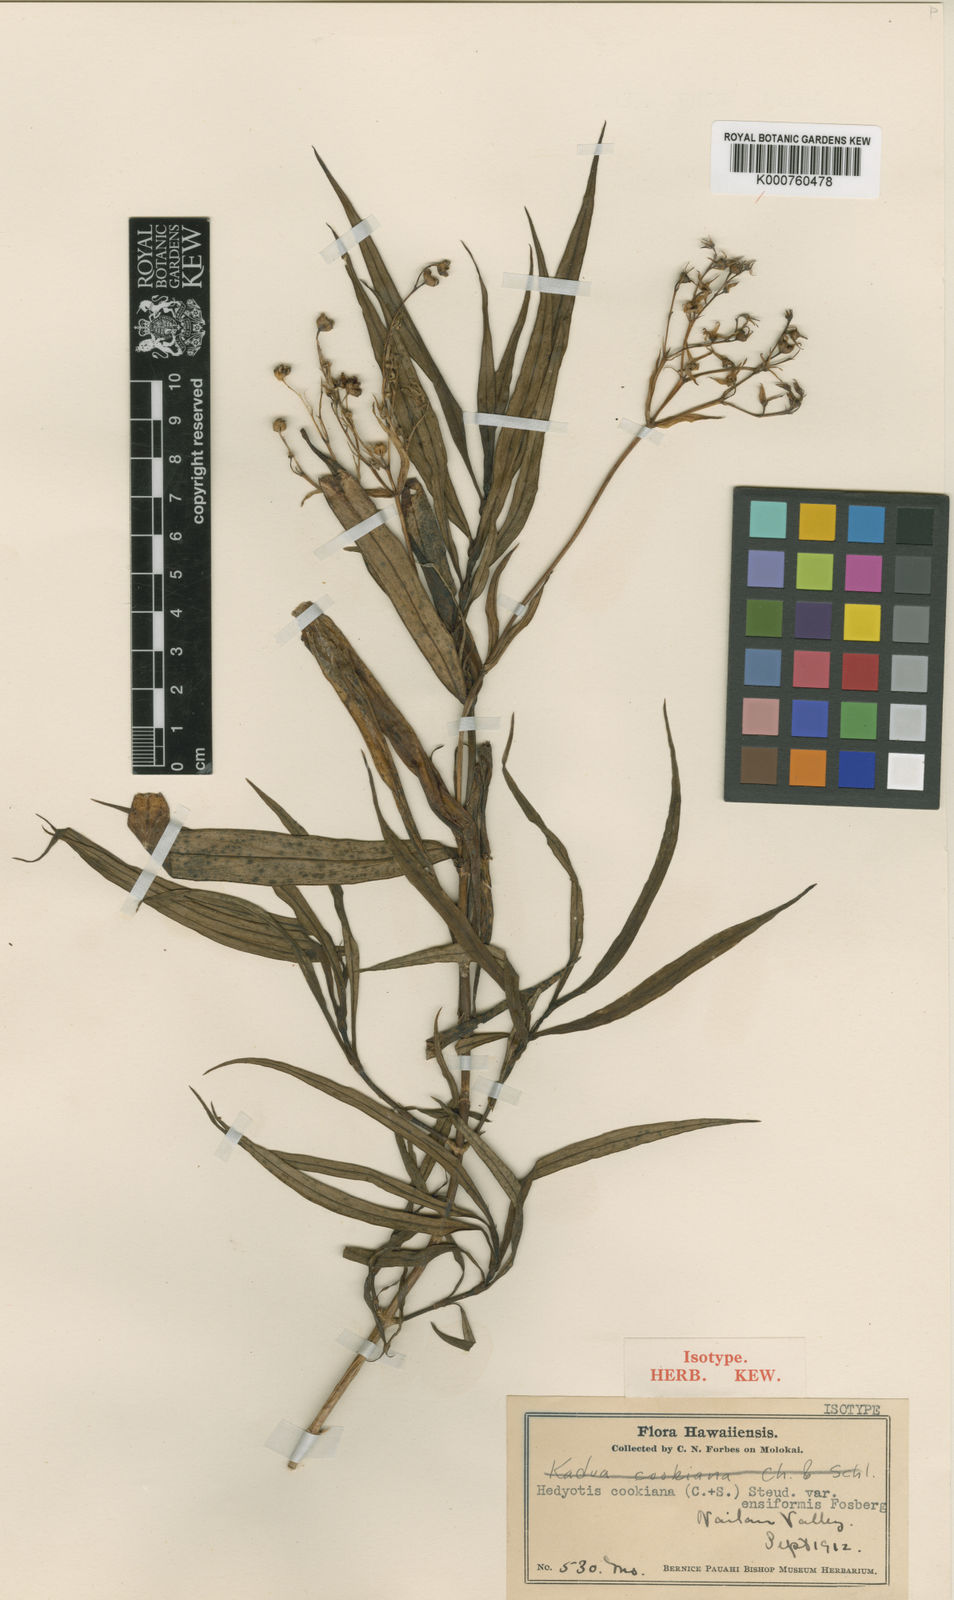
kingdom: Plantae
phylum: Tracheophyta
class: Magnoliopsida
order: Gentianales
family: Rubiaceae
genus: Kadua
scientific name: Kadua cookiana
